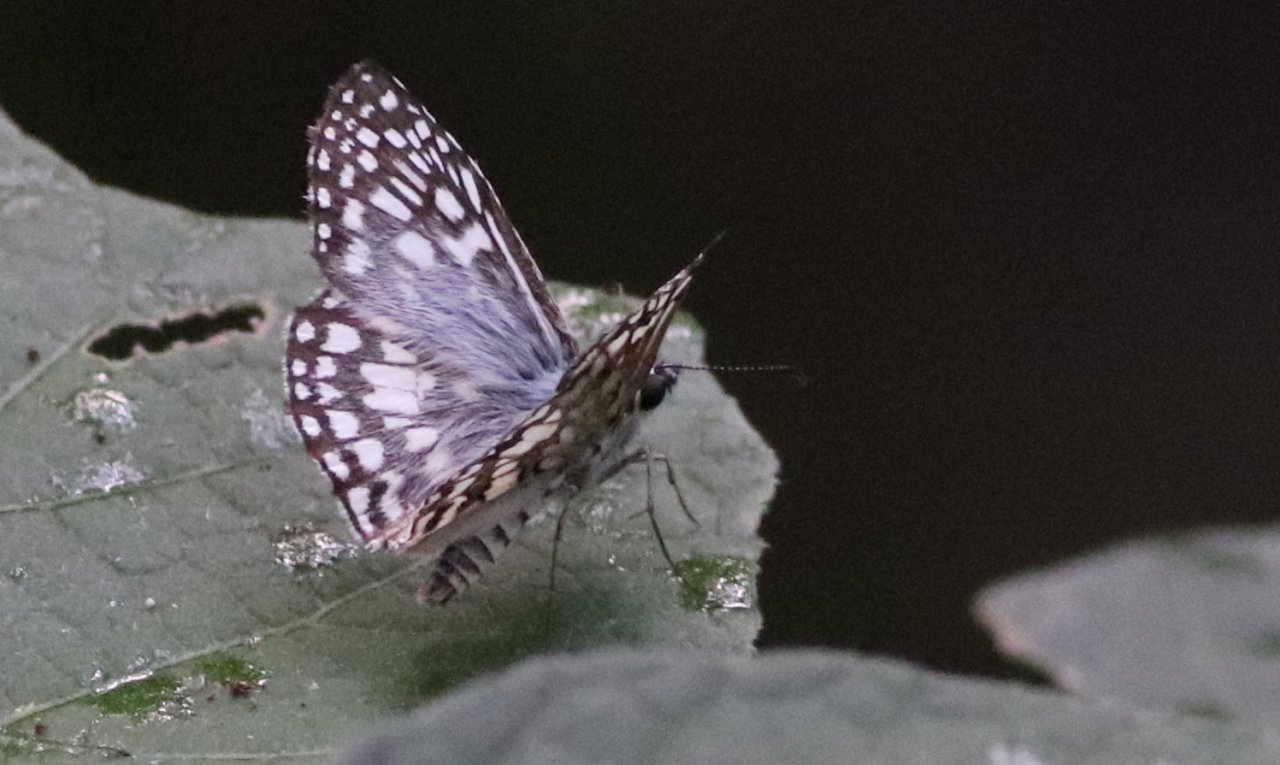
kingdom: Animalia
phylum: Arthropoda
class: Insecta
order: Lepidoptera
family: Hesperiidae
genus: Pyrgus
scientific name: Pyrgus oileus
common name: Tropical Checkered-Skipper
